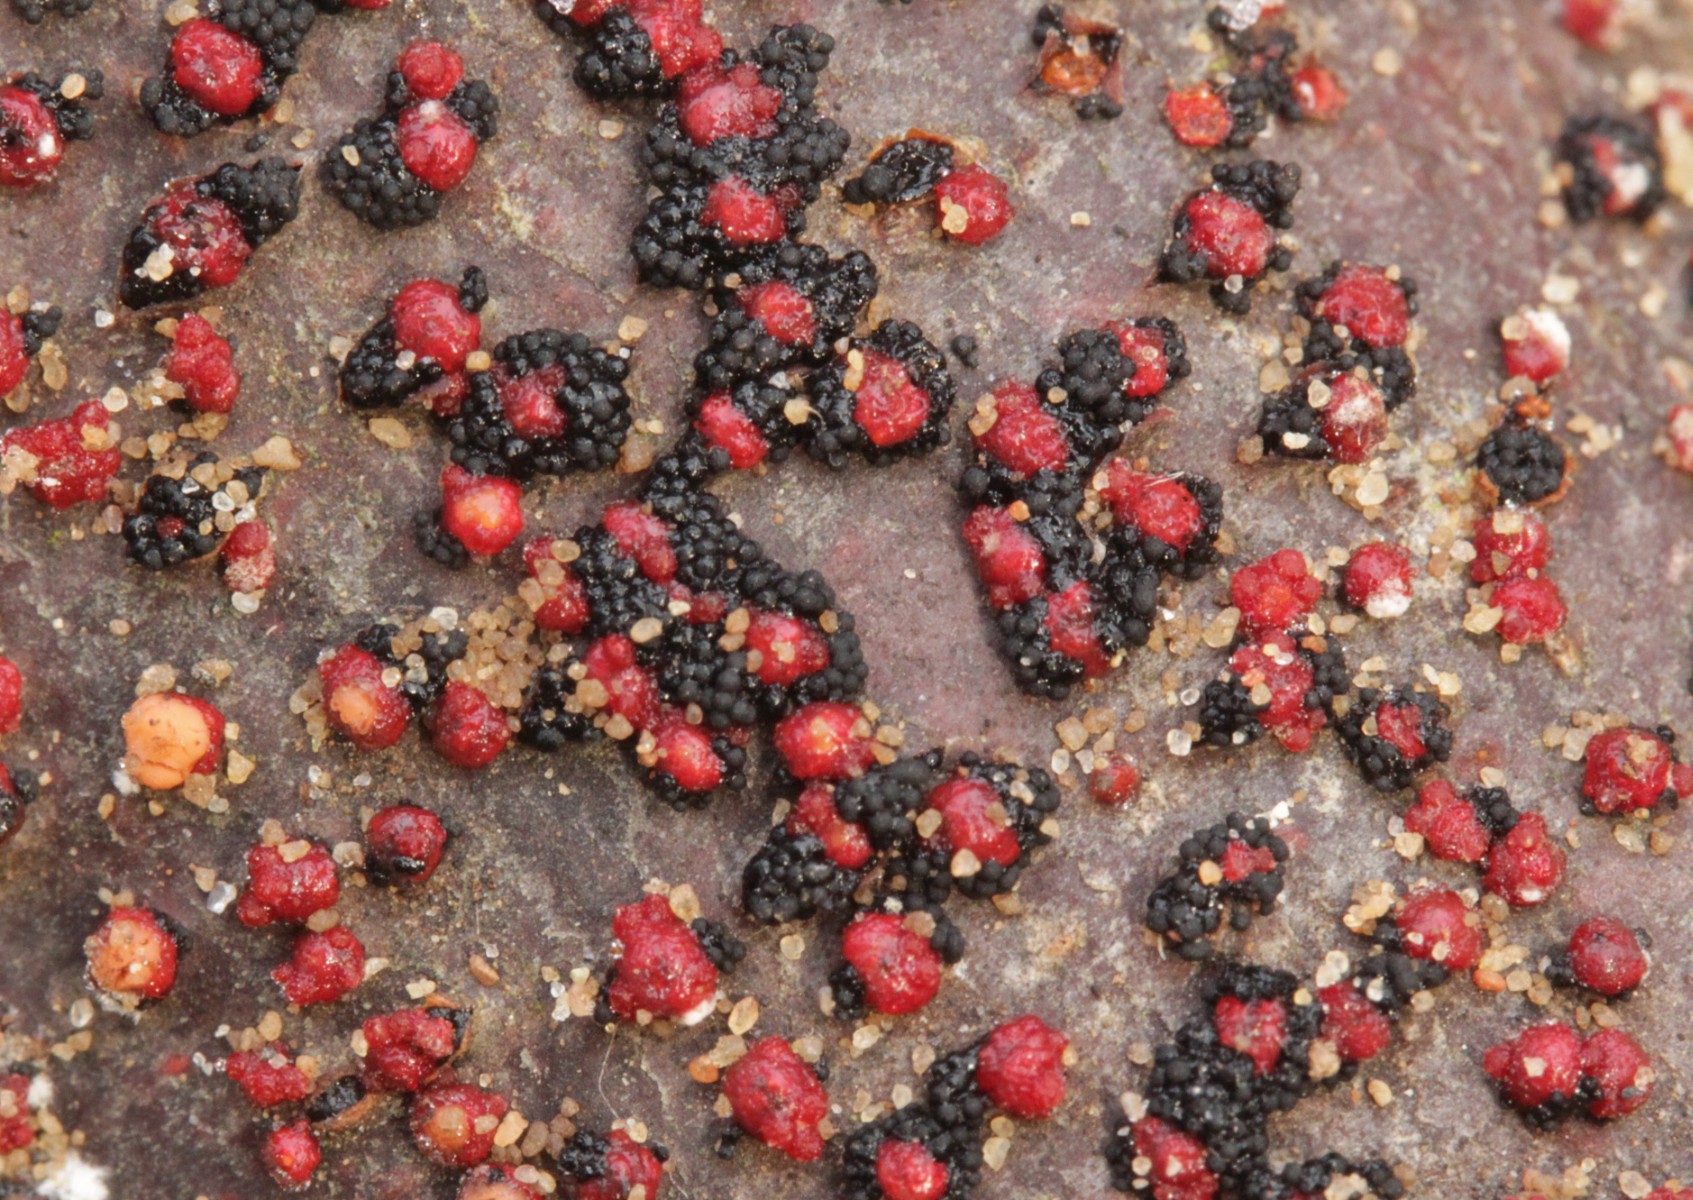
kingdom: Fungi
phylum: Ascomycota
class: Sordariomycetes
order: Coronophorales
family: Nitschkiaceae
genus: Nitschkia
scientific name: Nitschkia parasitans
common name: snyltende skålkerne
